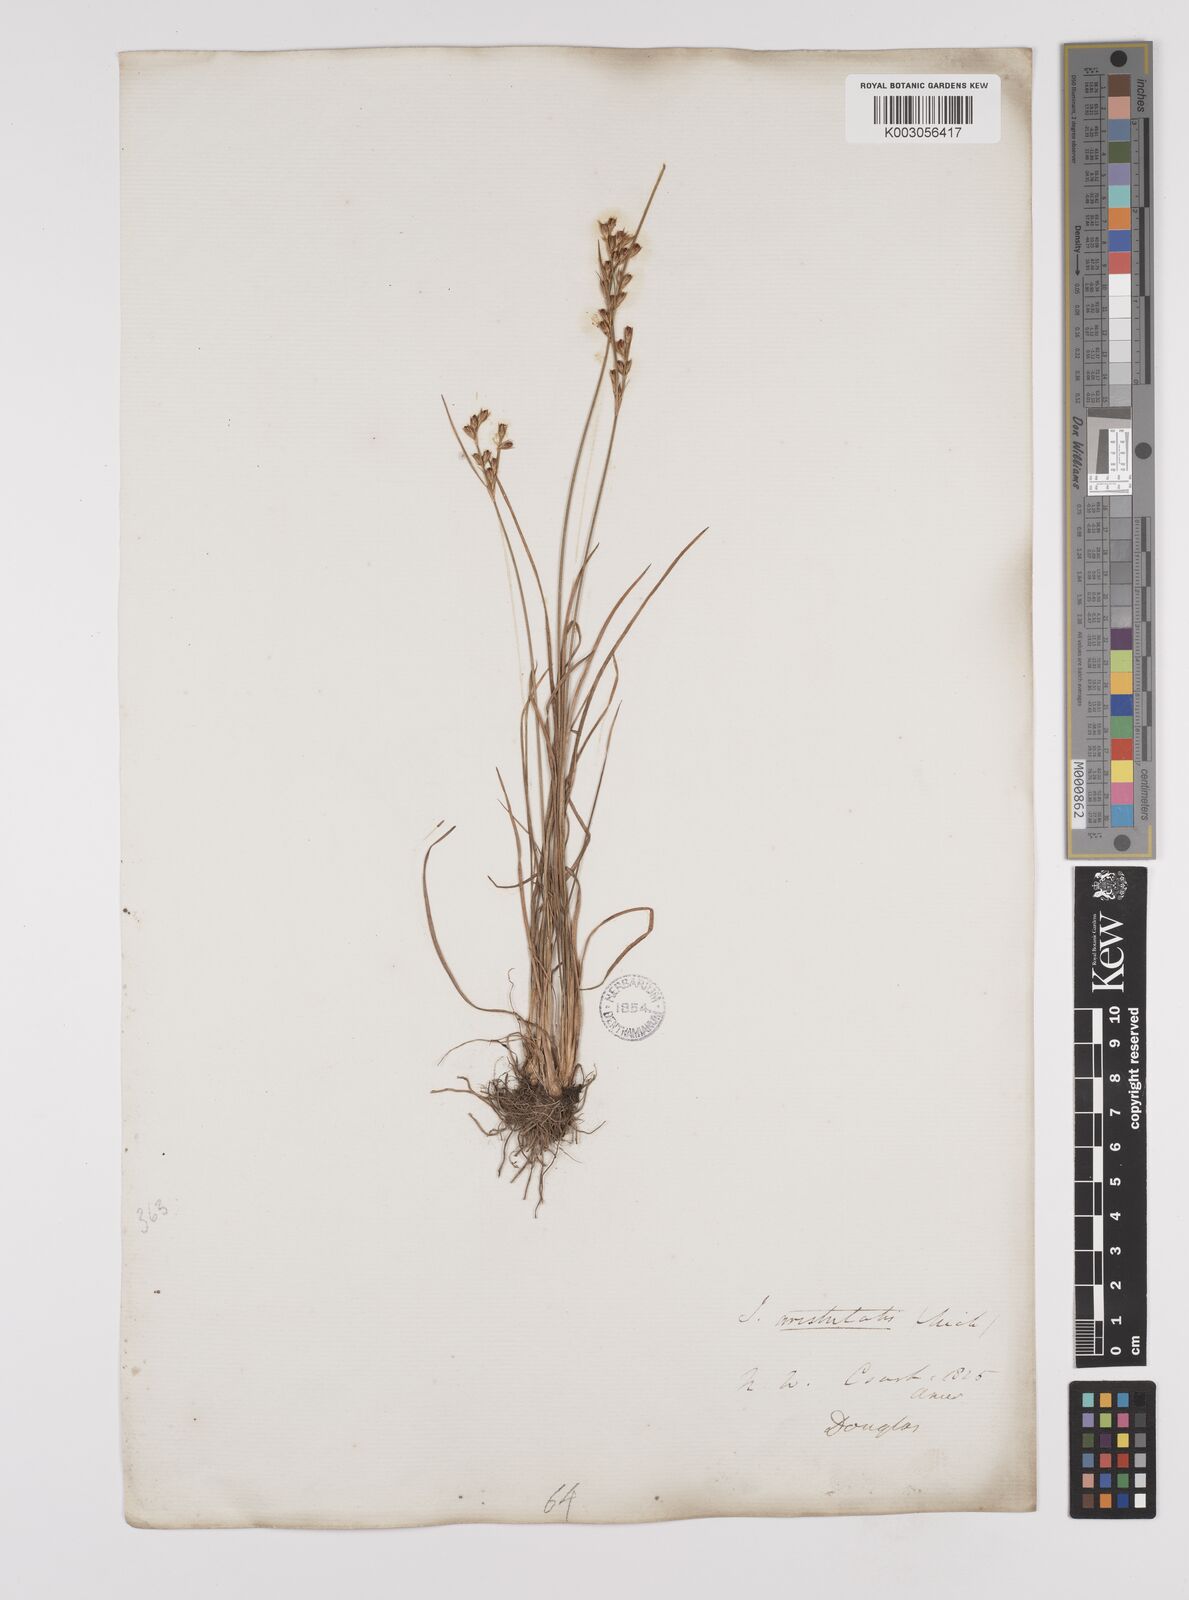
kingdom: Plantae
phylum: Tracheophyta
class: Liliopsida
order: Poales
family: Juncaceae
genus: Juncus
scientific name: Juncus tenuis
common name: Slender rush
